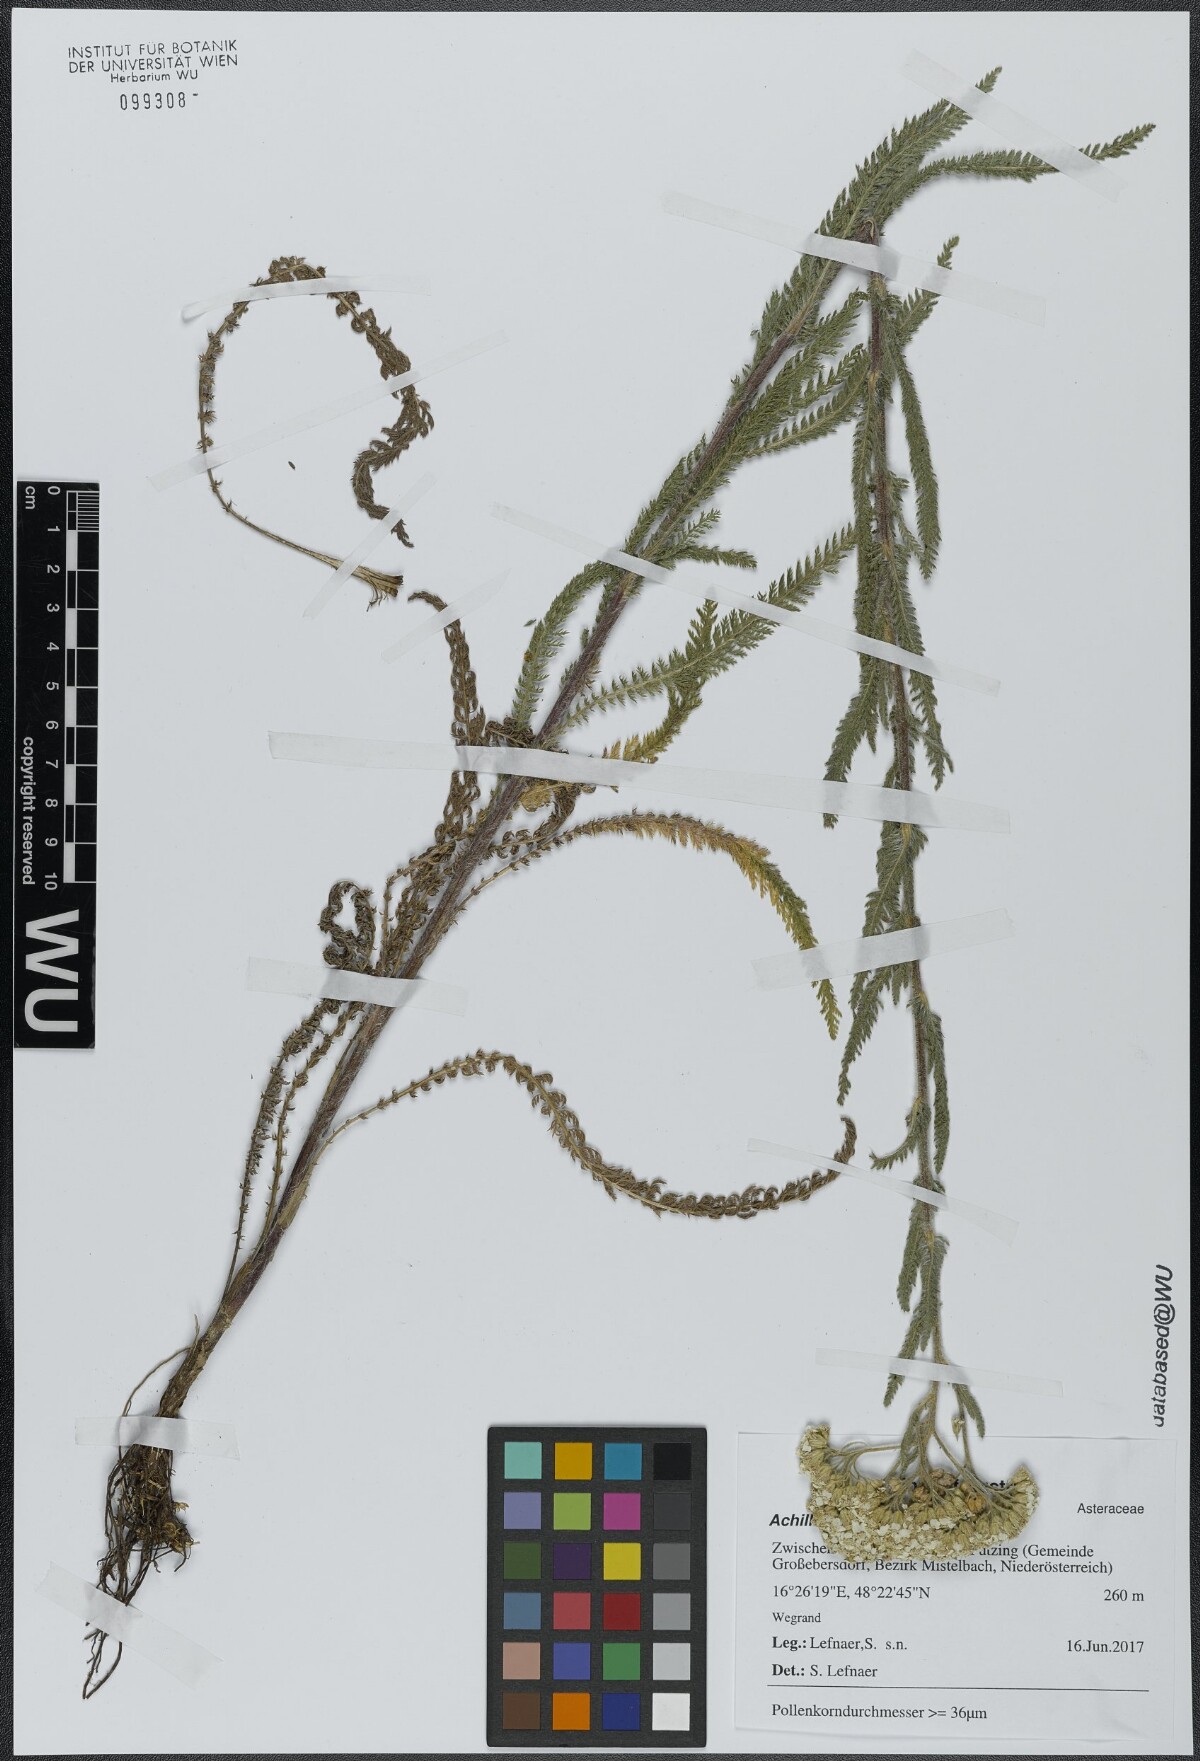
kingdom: Plantae
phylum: Tracheophyta
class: Magnoliopsida
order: Asterales
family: Asteraceae
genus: Achillea
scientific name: Achillea pannonica
